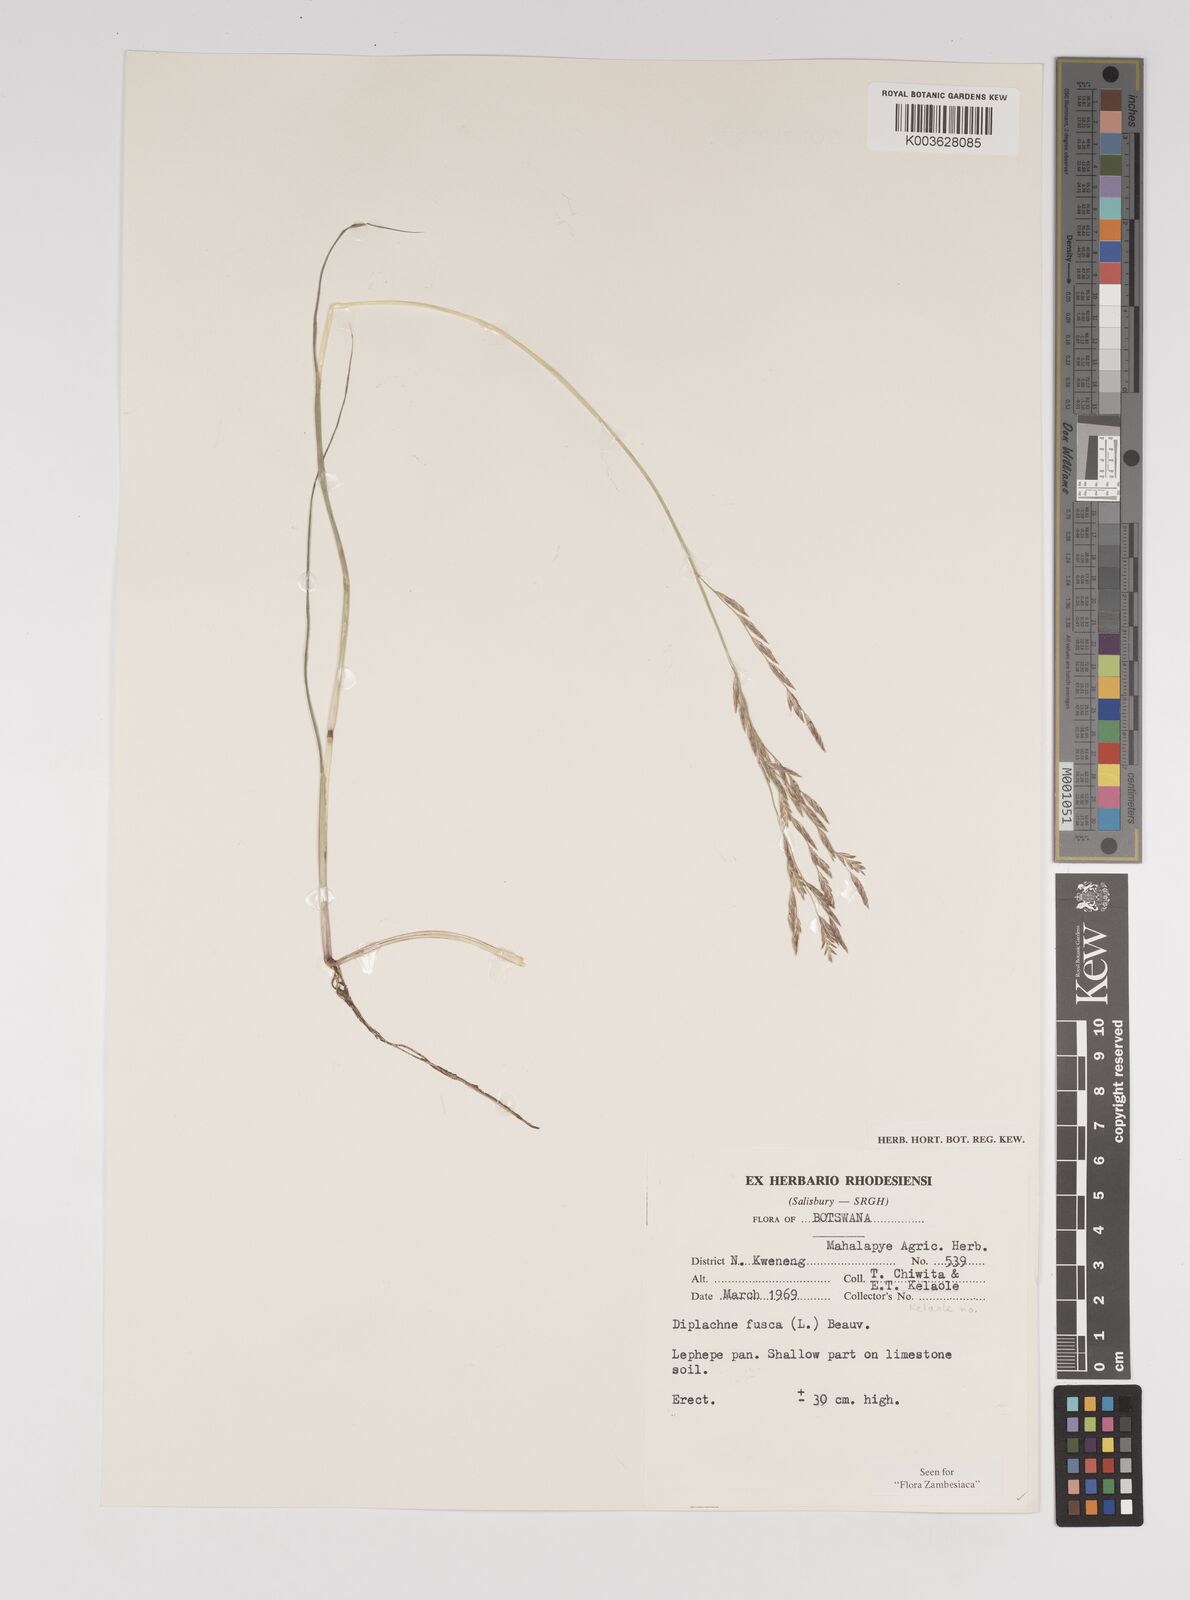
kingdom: Plantae
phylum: Tracheophyta
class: Liliopsida
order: Poales
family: Poaceae
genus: Diplachne
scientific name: Diplachne fusca
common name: Brown beetle grass
